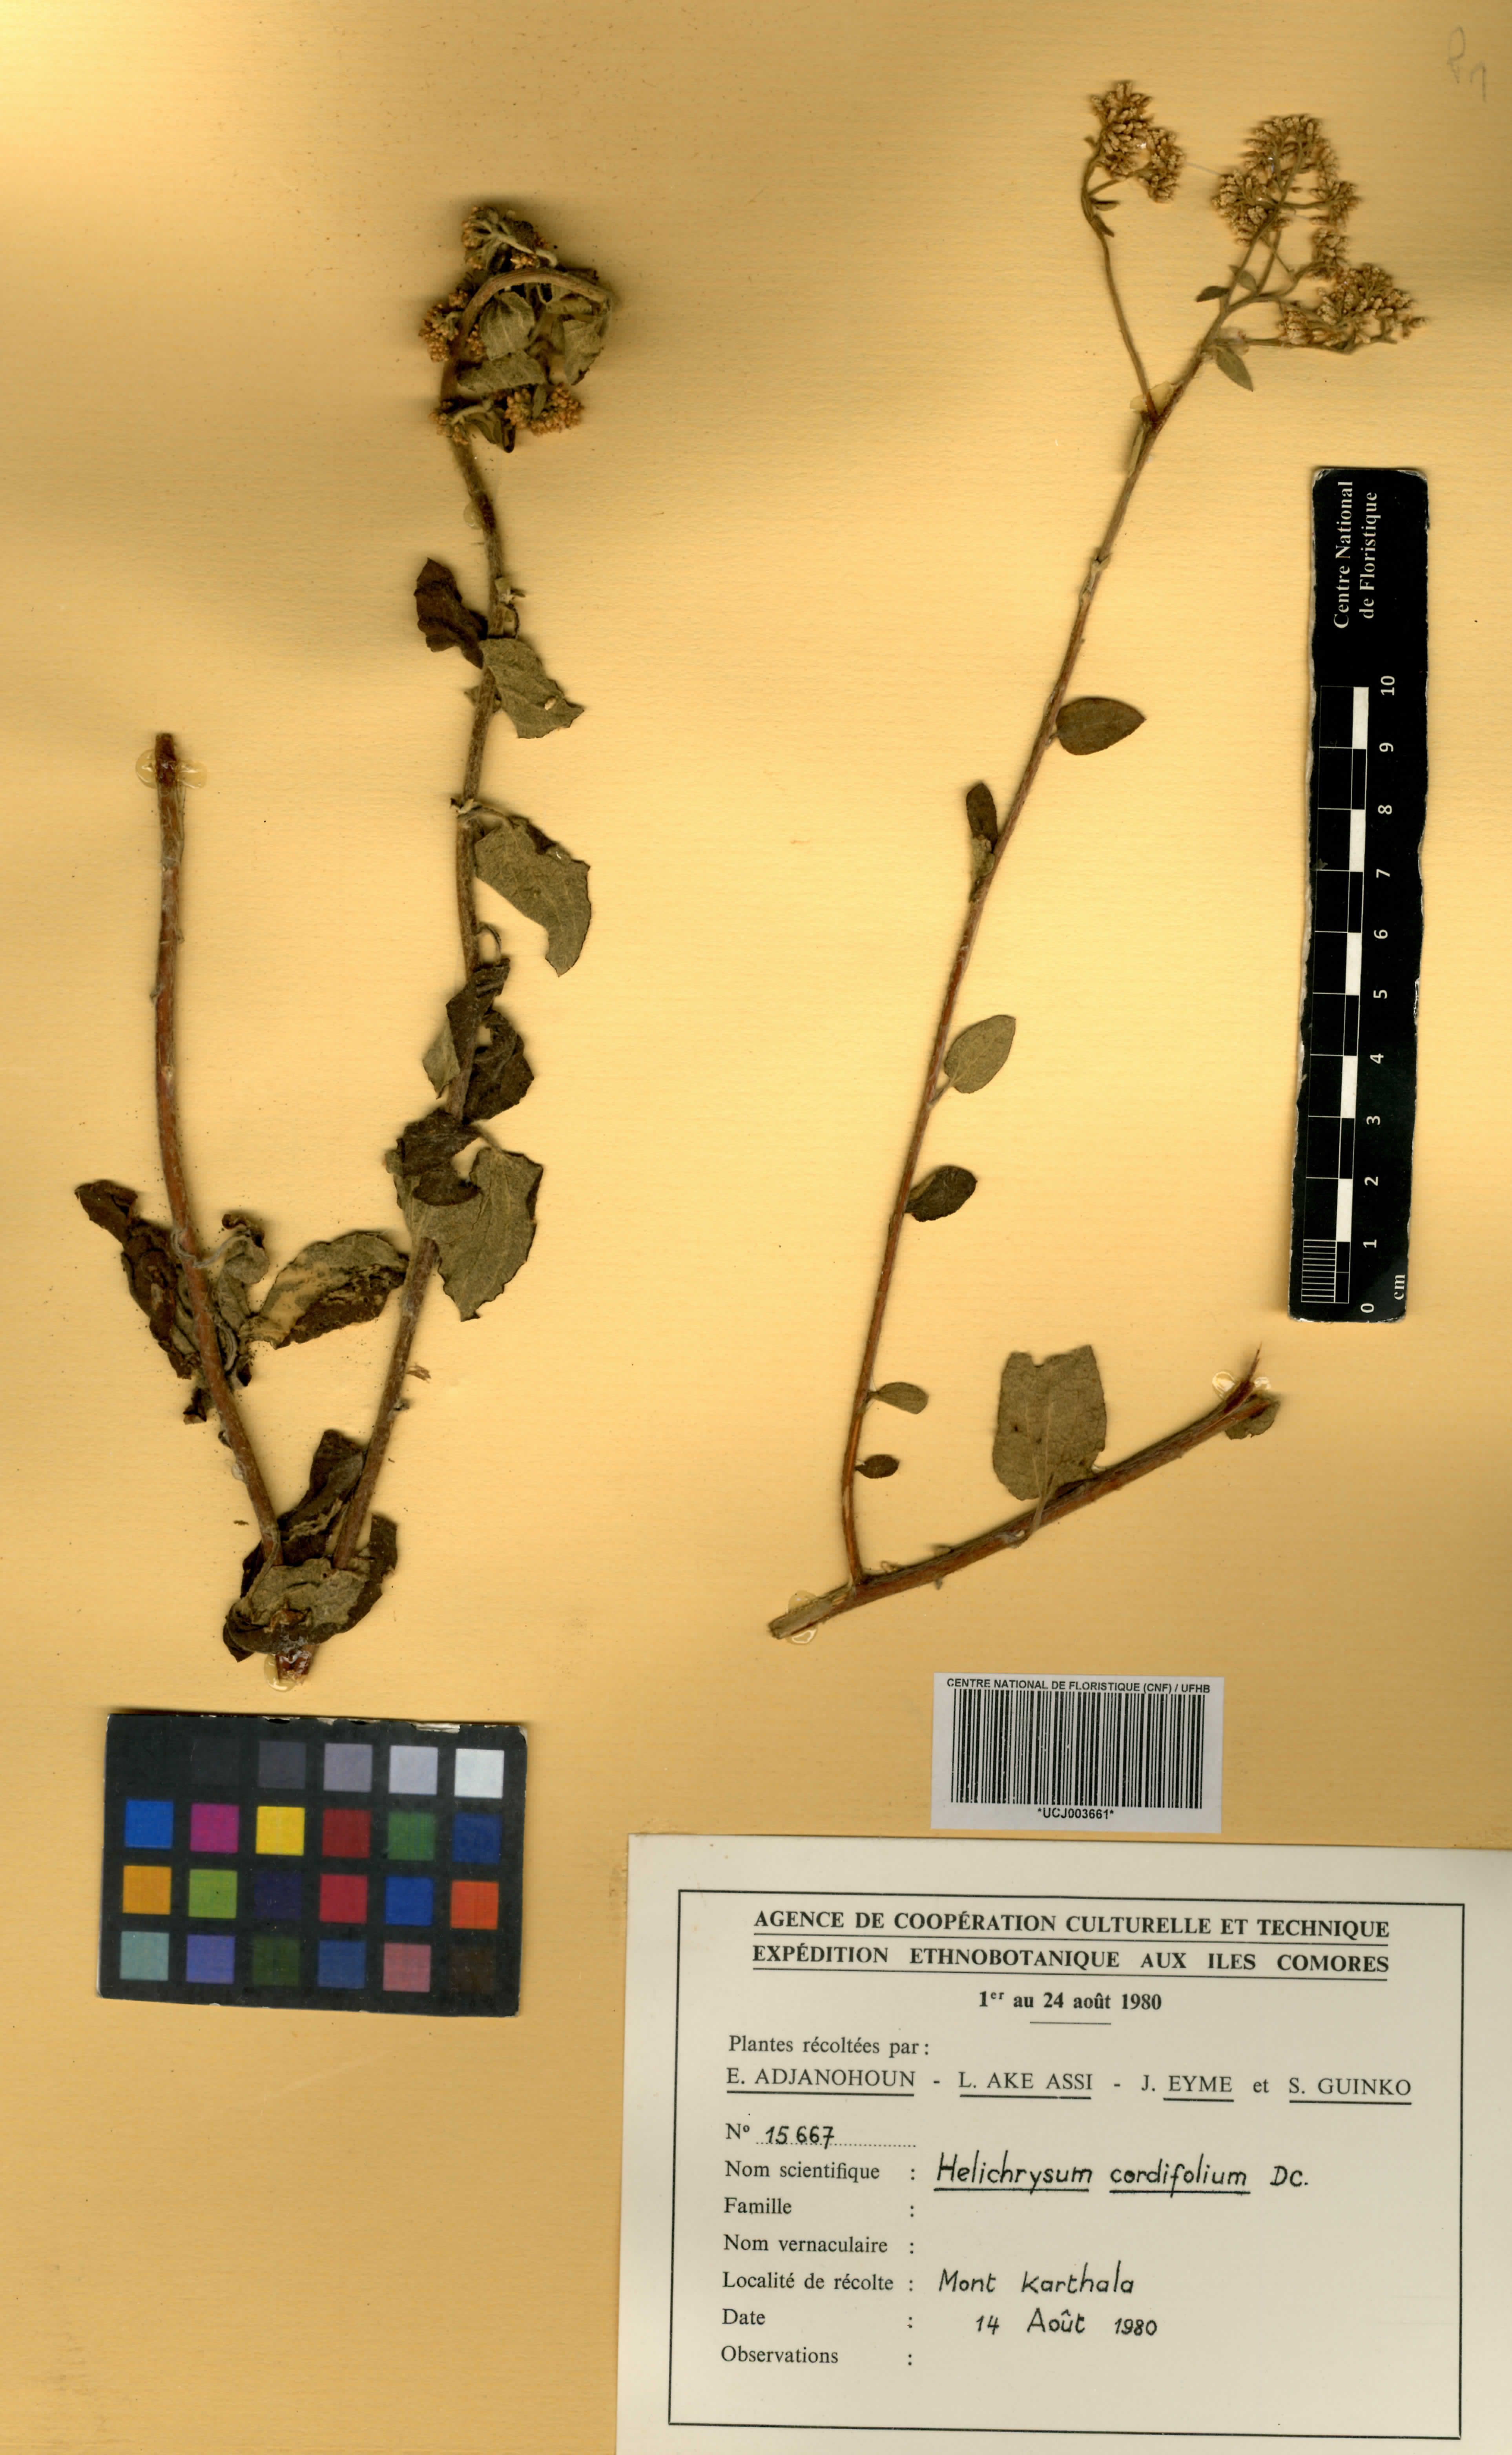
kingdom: Plantae
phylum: Tracheophyta
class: Magnoliopsida
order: Asterales
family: Asteraceae
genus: Helichrysum
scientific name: Helichrysum cordifolium
